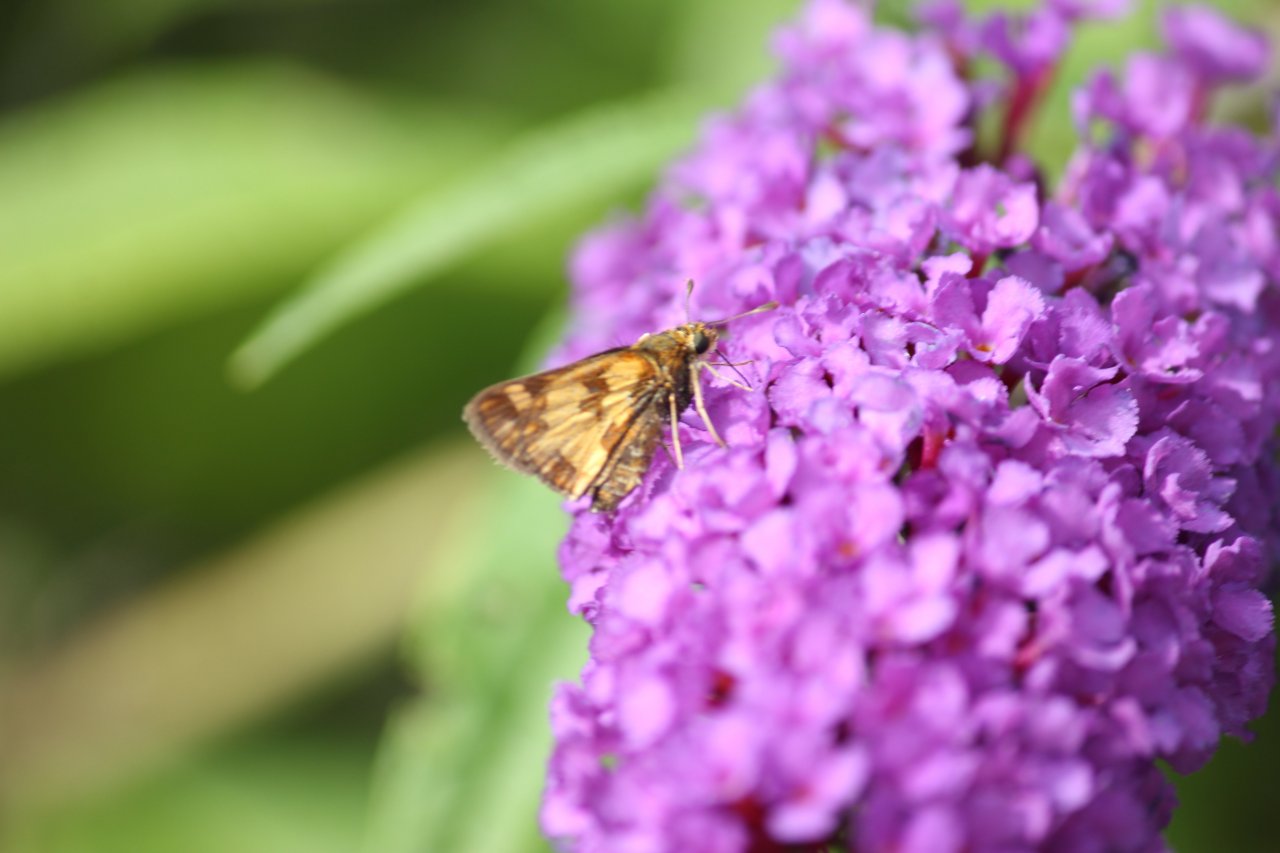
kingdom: Animalia
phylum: Arthropoda
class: Insecta
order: Lepidoptera
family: Hesperiidae
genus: Polites
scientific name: Polites coras
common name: Peck's Skipper
